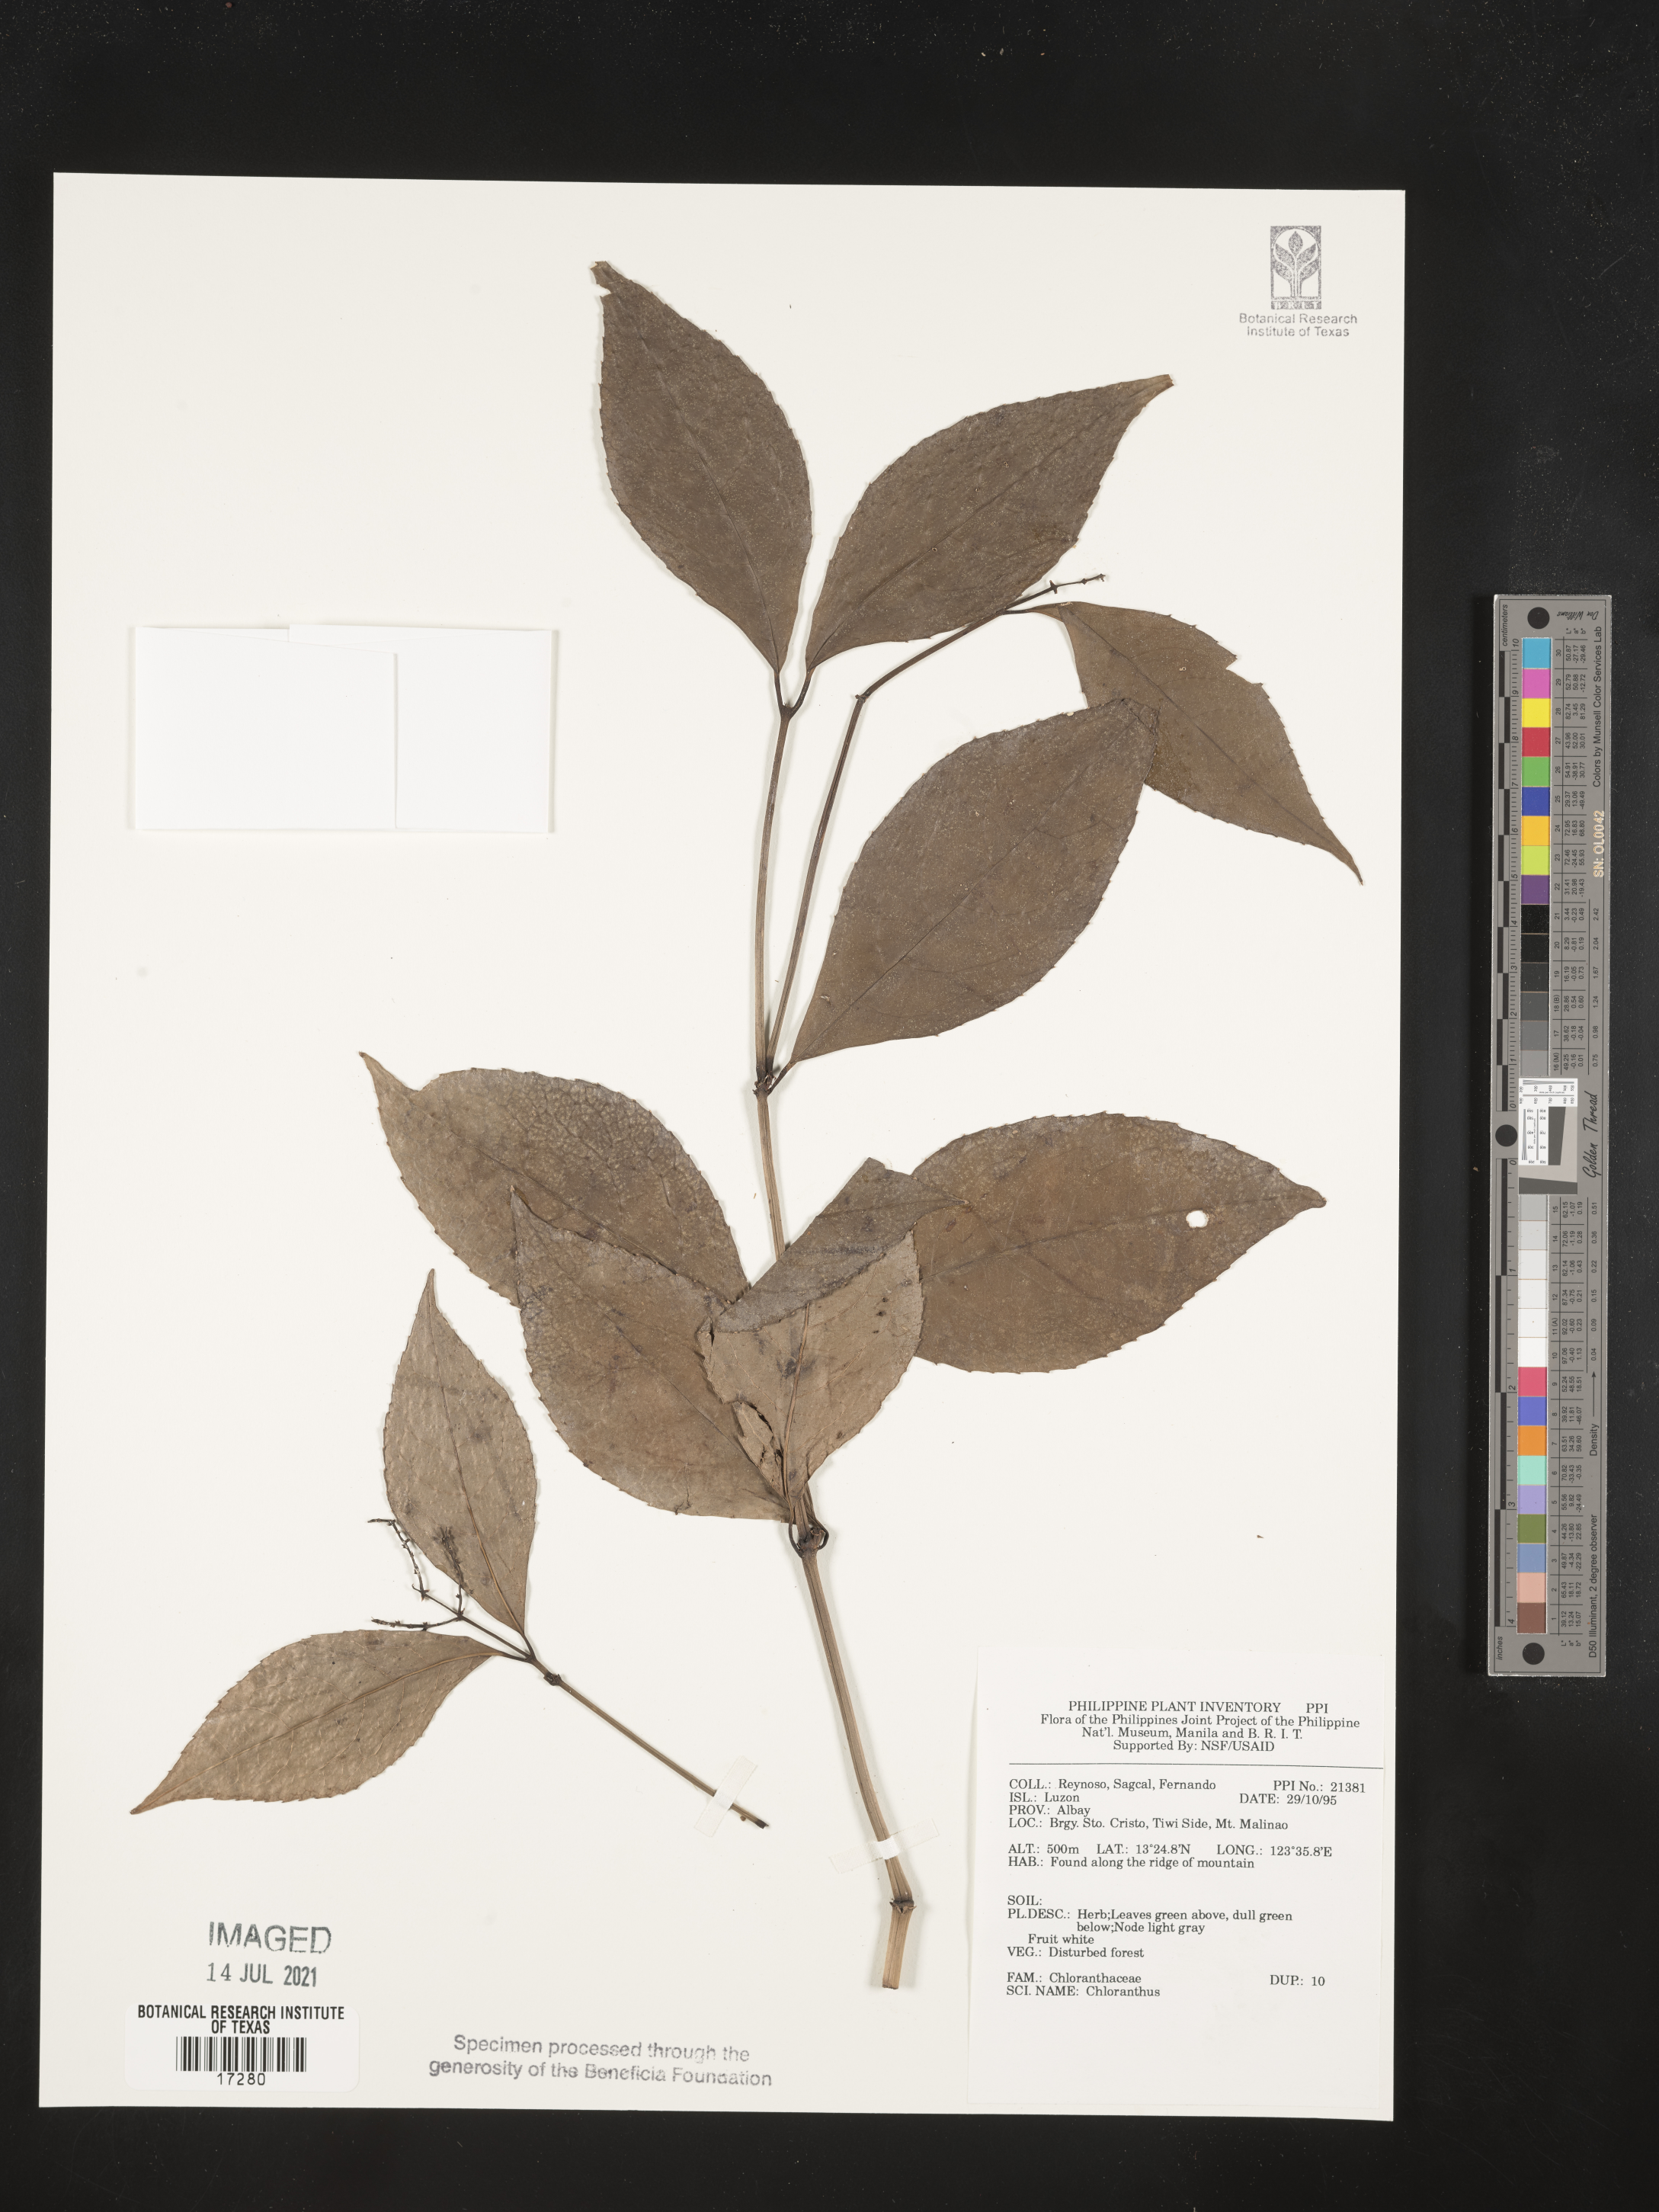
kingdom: Plantae
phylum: Tracheophyta
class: Magnoliopsida
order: Chloranthales
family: Chloranthaceae
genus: Chloranthus
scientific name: Chloranthus
